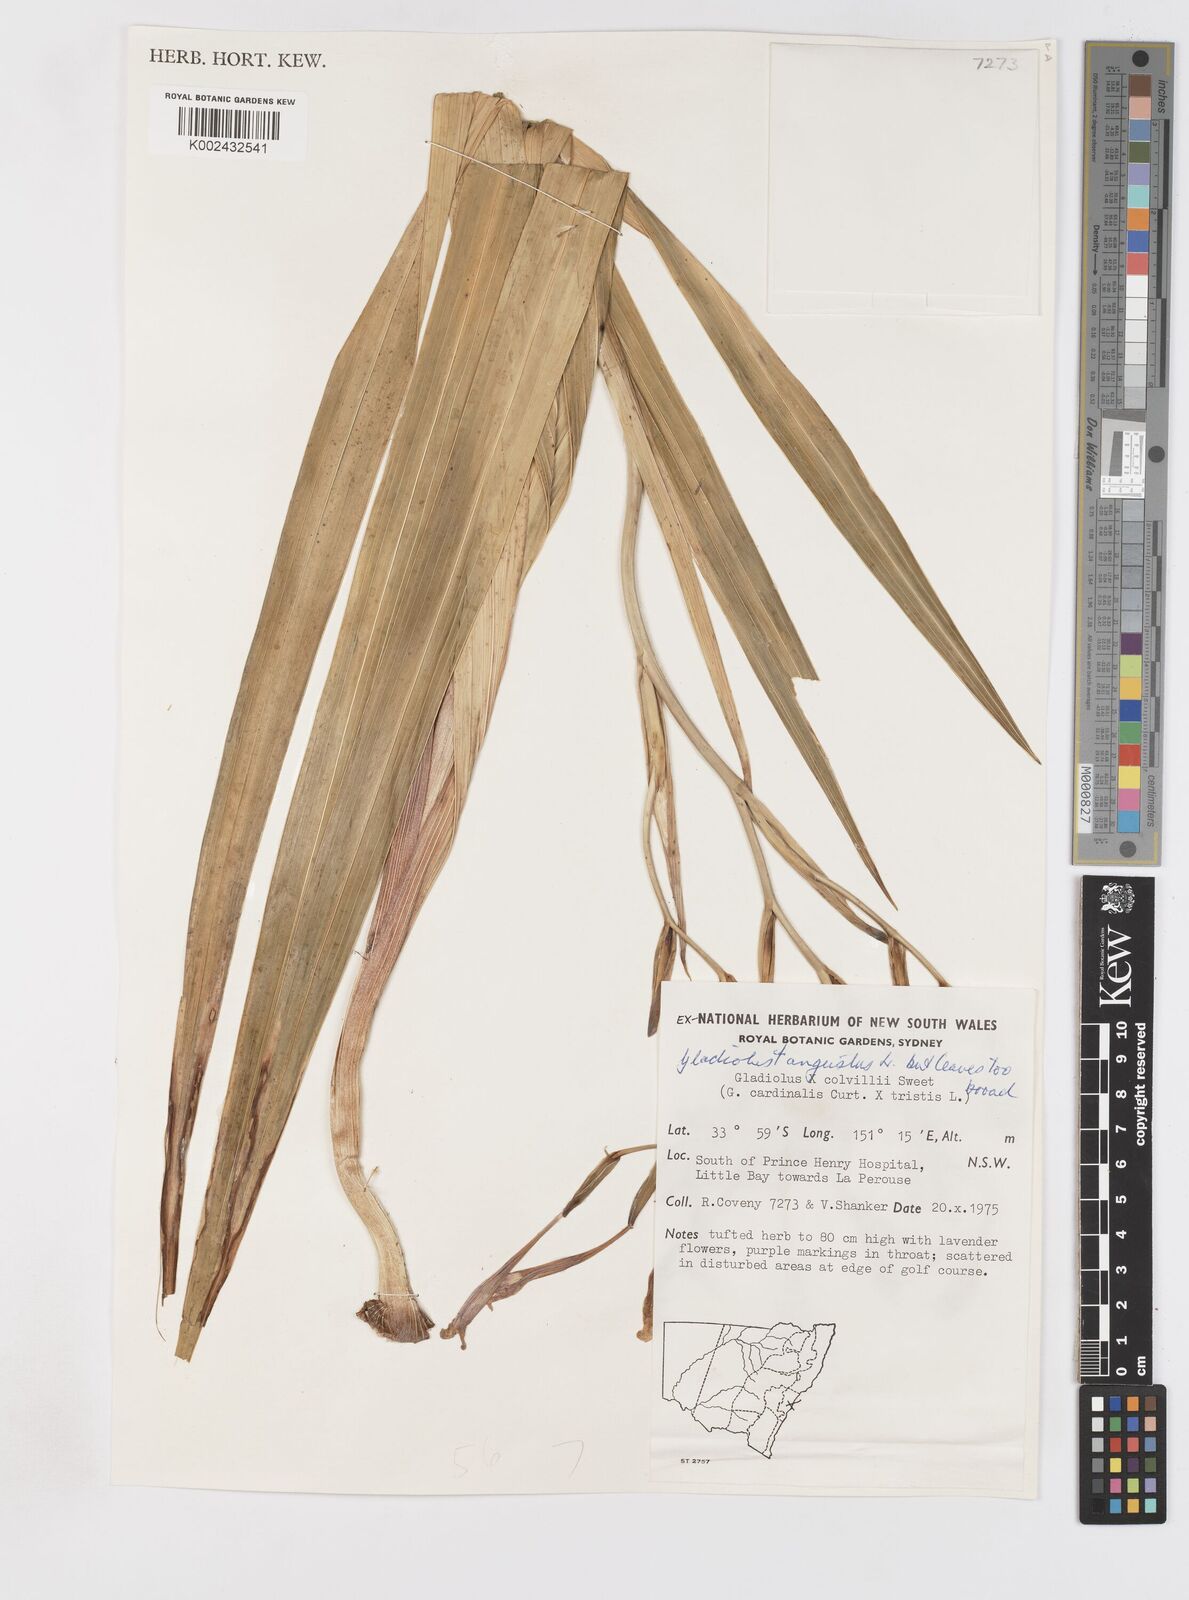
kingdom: Plantae
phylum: Tracheophyta
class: Liliopsida
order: Asparagales
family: Iridaceae
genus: Gladiolus
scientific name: Gladiolus angustus
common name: Painted-lady
